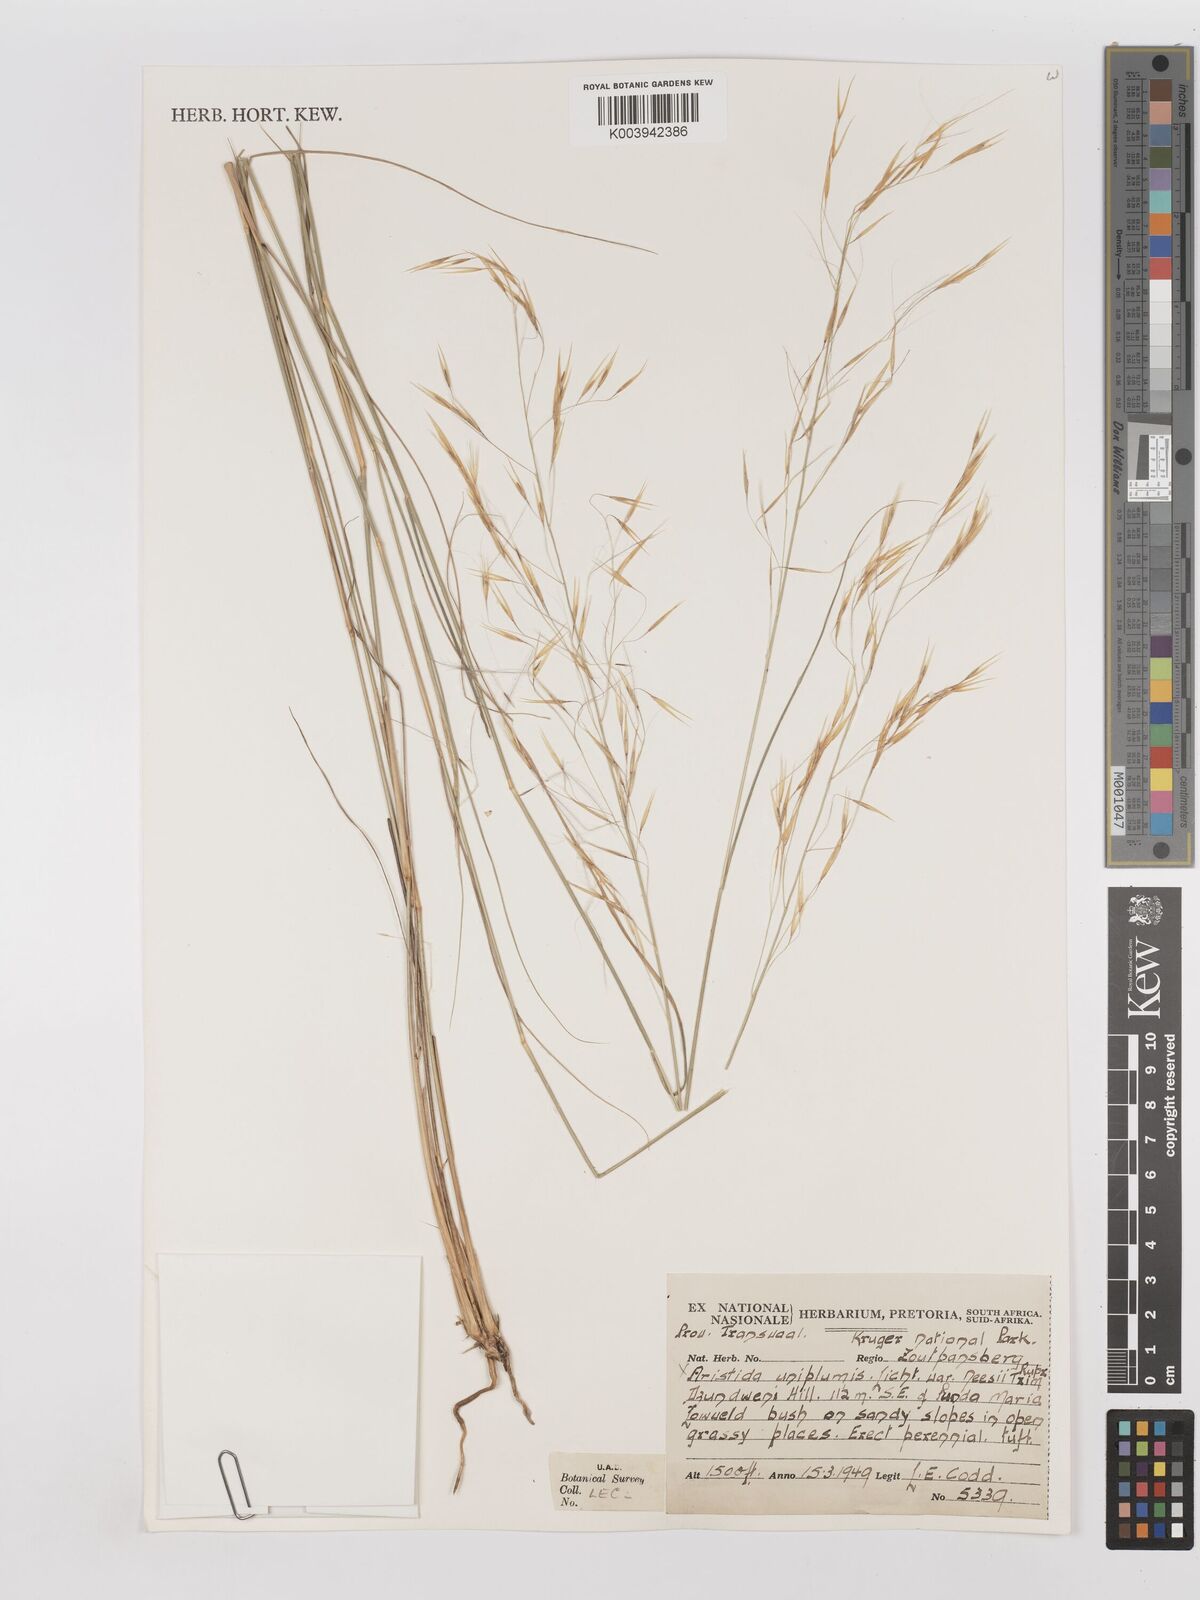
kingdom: Plantae
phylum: Tracheophyta
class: Liliopsida
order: Poales
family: Poaceae
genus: Stipagrostis
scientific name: Stipagrostis uniplumis
